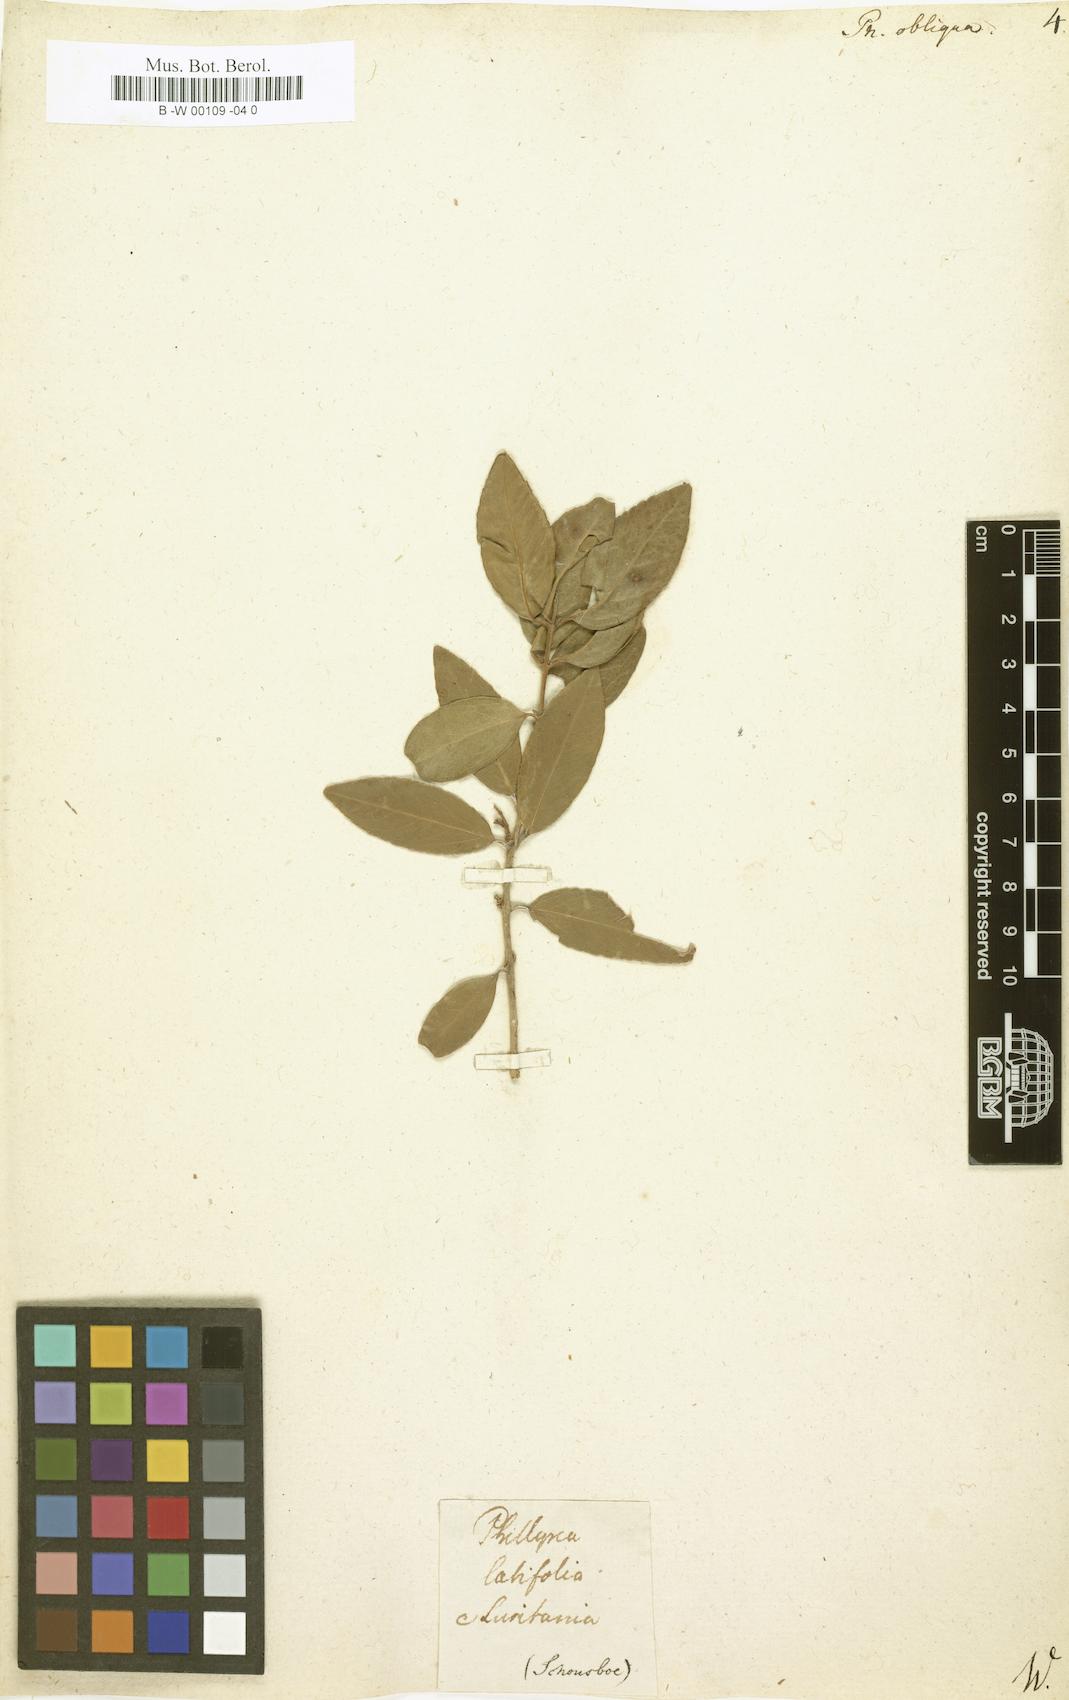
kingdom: Plantae
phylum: Tracheophyta
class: Magnoliopsida
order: Lamiales
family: Oleaceae
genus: Phillyrea
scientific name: Phillyrea latifolia
